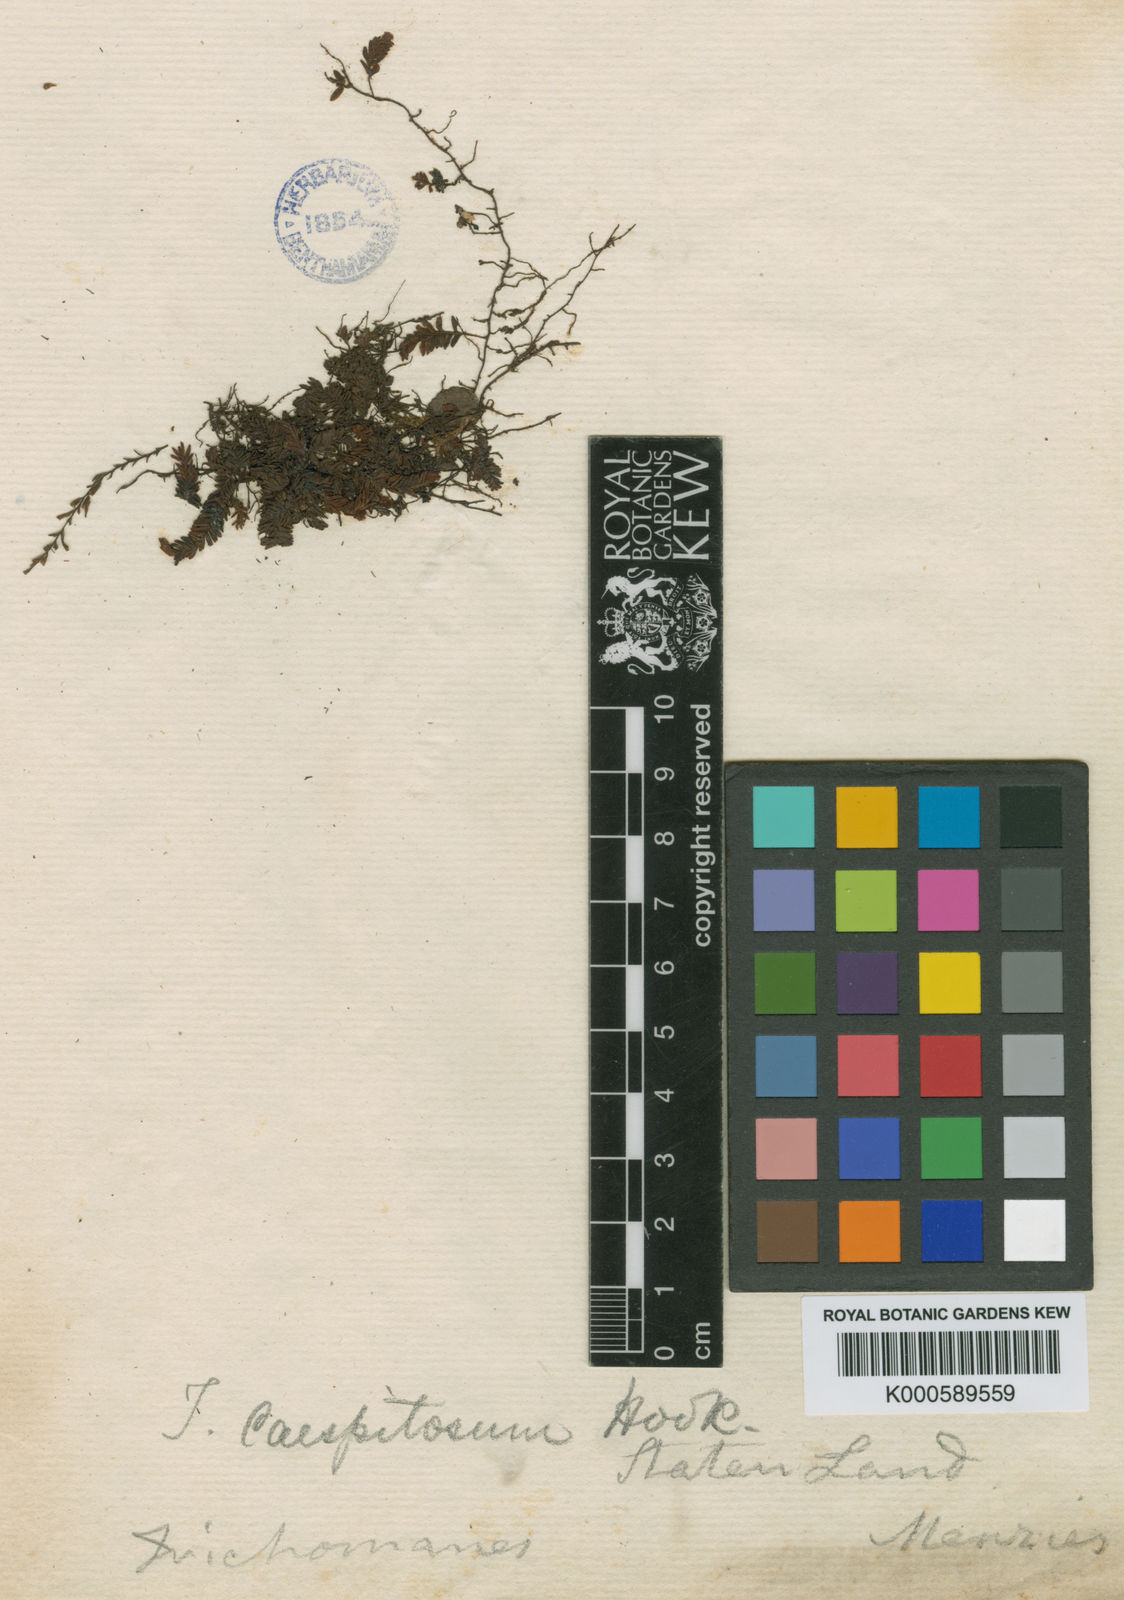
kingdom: Plantae
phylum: Tracheophyta
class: Polypodiopsida
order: Hymenophyllales
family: Hymenophyllaceae
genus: Hymenophyllum
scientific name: Hymenophyllum caespitosum
